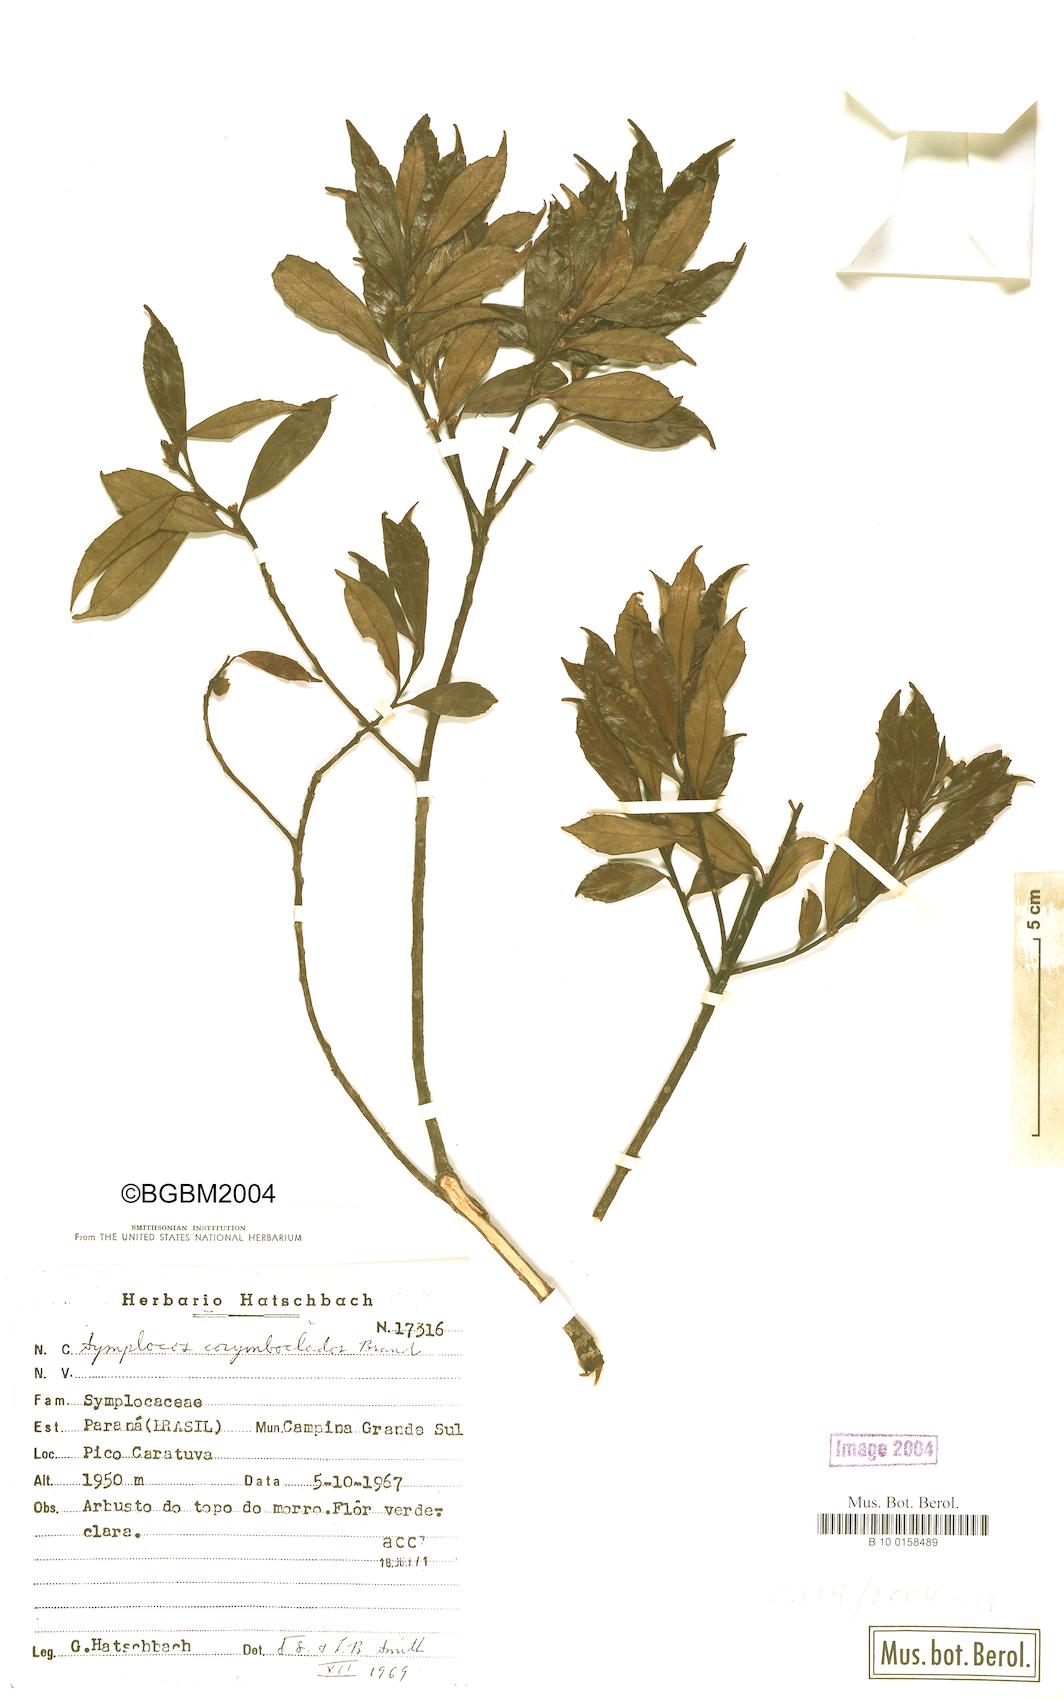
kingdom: Plantae
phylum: Tracheophyta
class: Magnoliopsida
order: Ericales
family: Symplocaceae
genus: Symplocos
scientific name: Symplocos corymboclados
